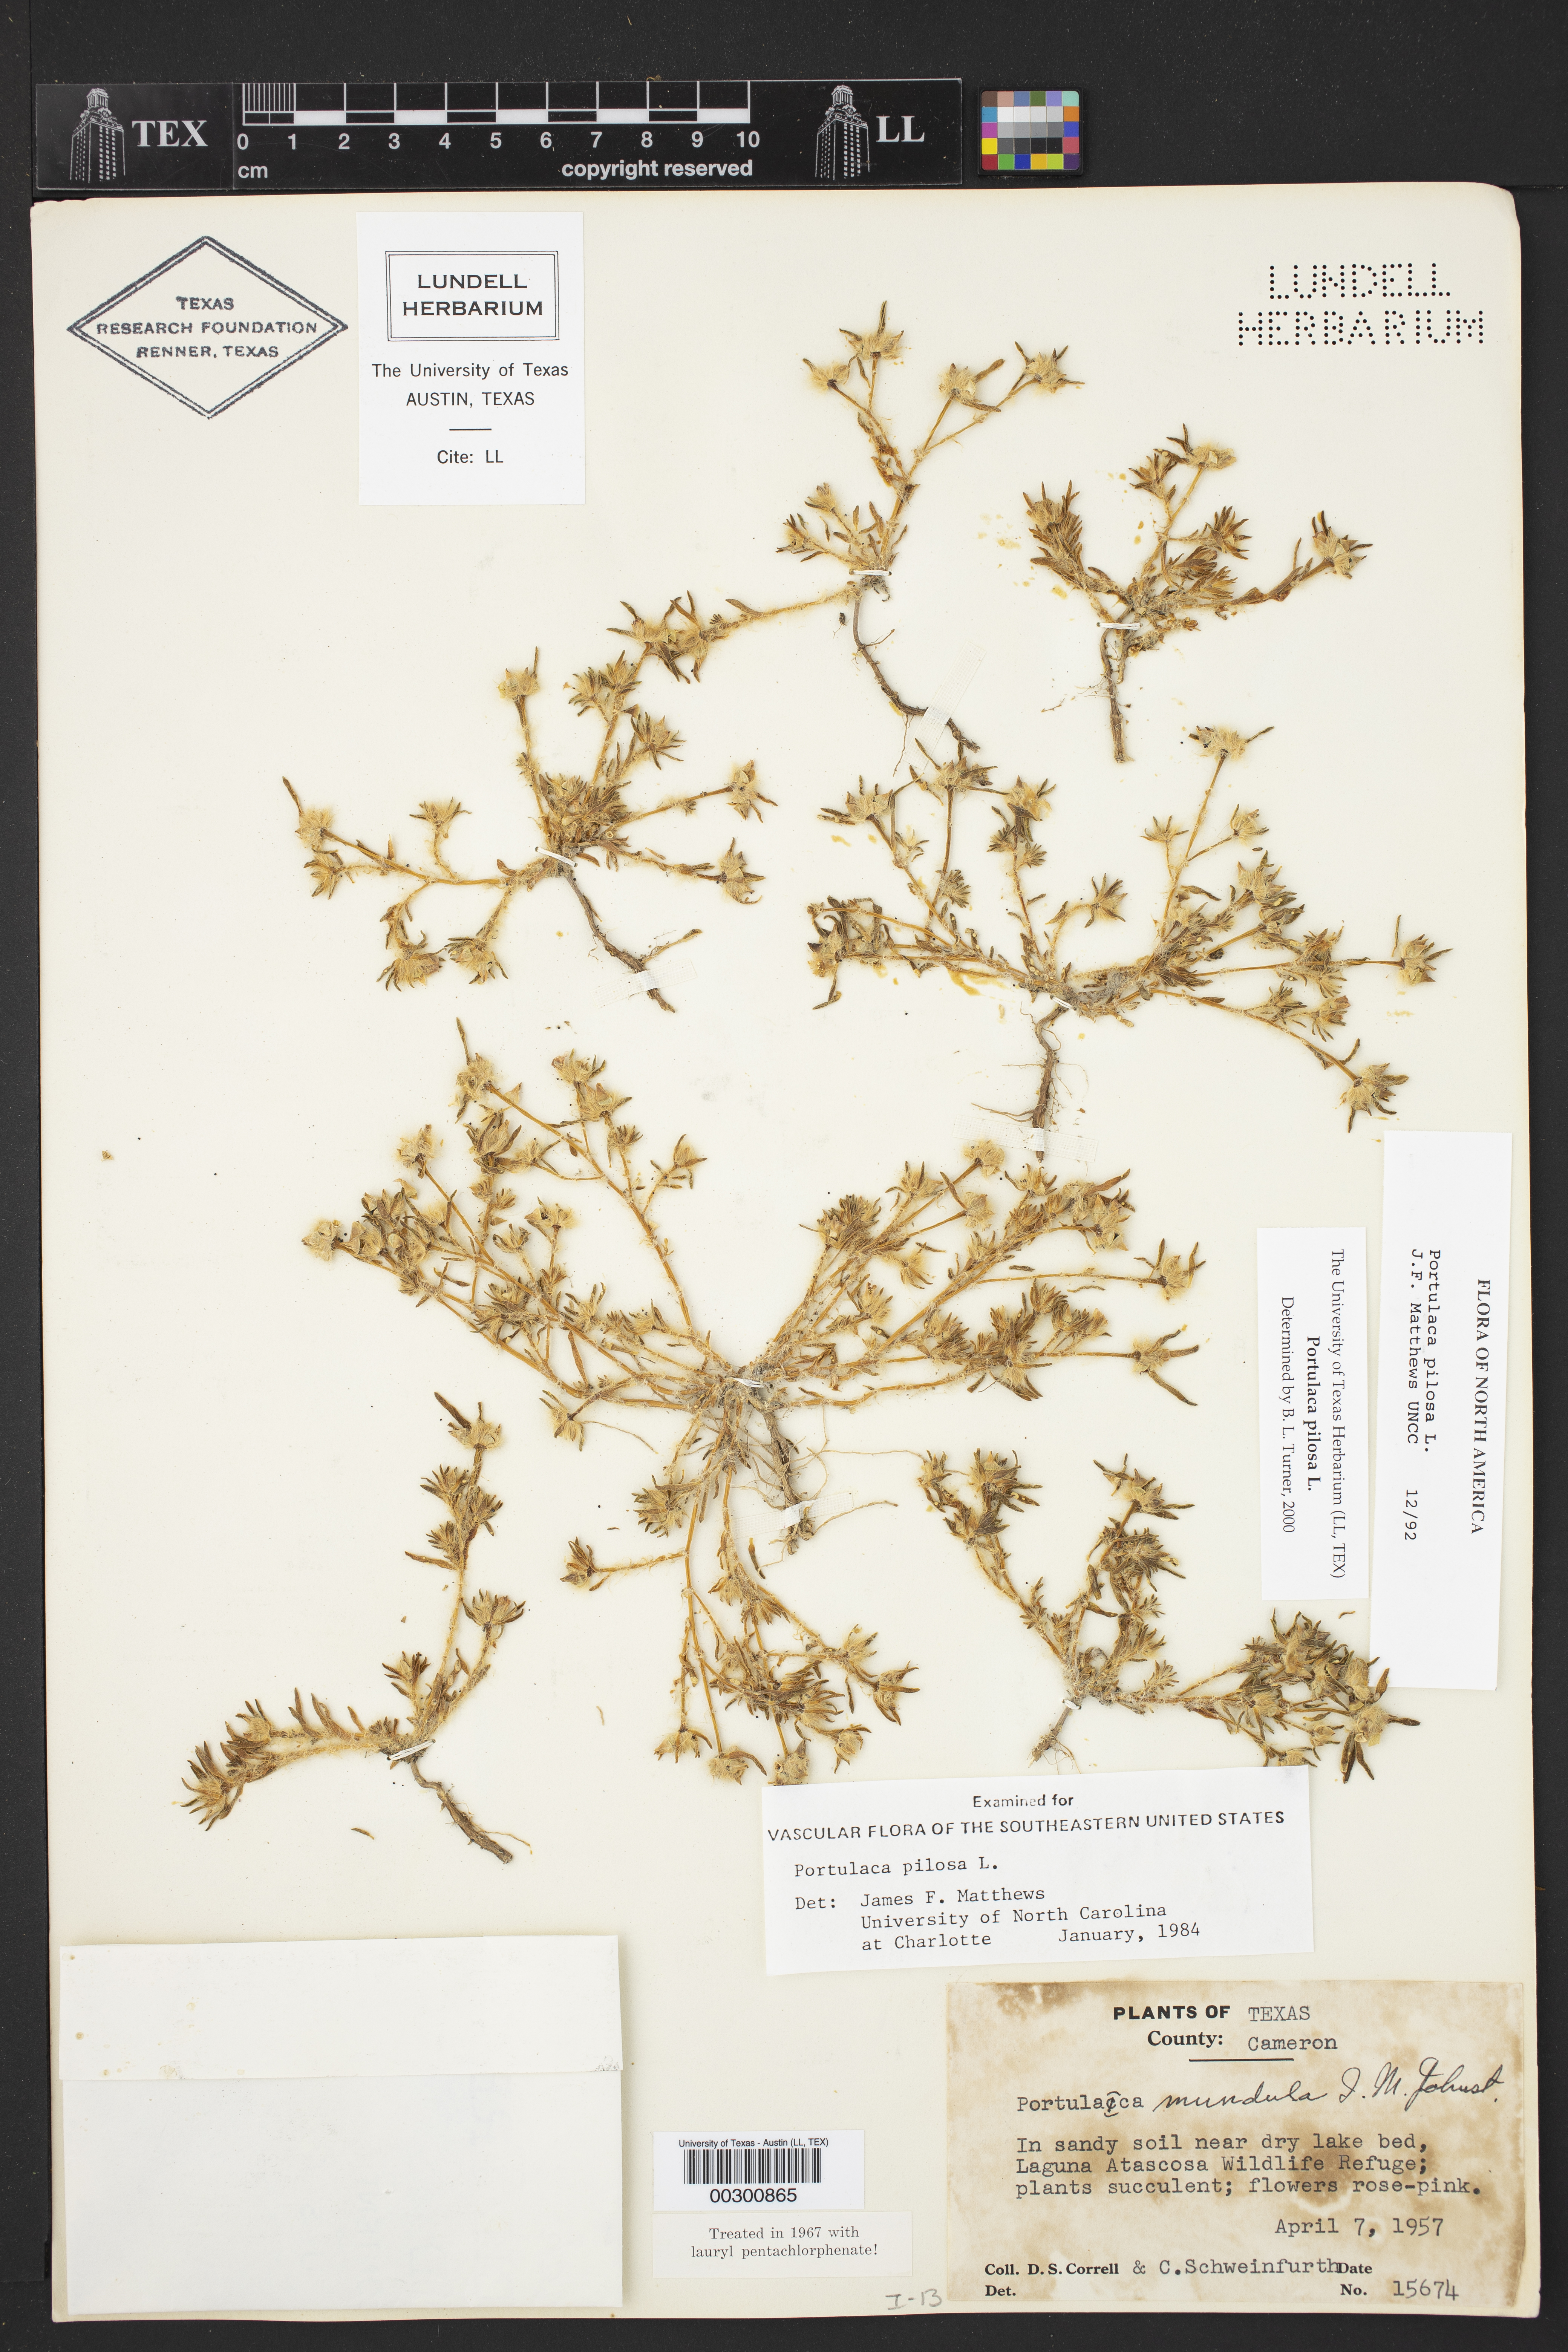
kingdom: Plantae
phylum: Tracheophyta
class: Magnoliopsida
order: Caryophyllales
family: Portulacaceae
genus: Portulaca
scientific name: Portulaca pilosa
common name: Kiss me quick
